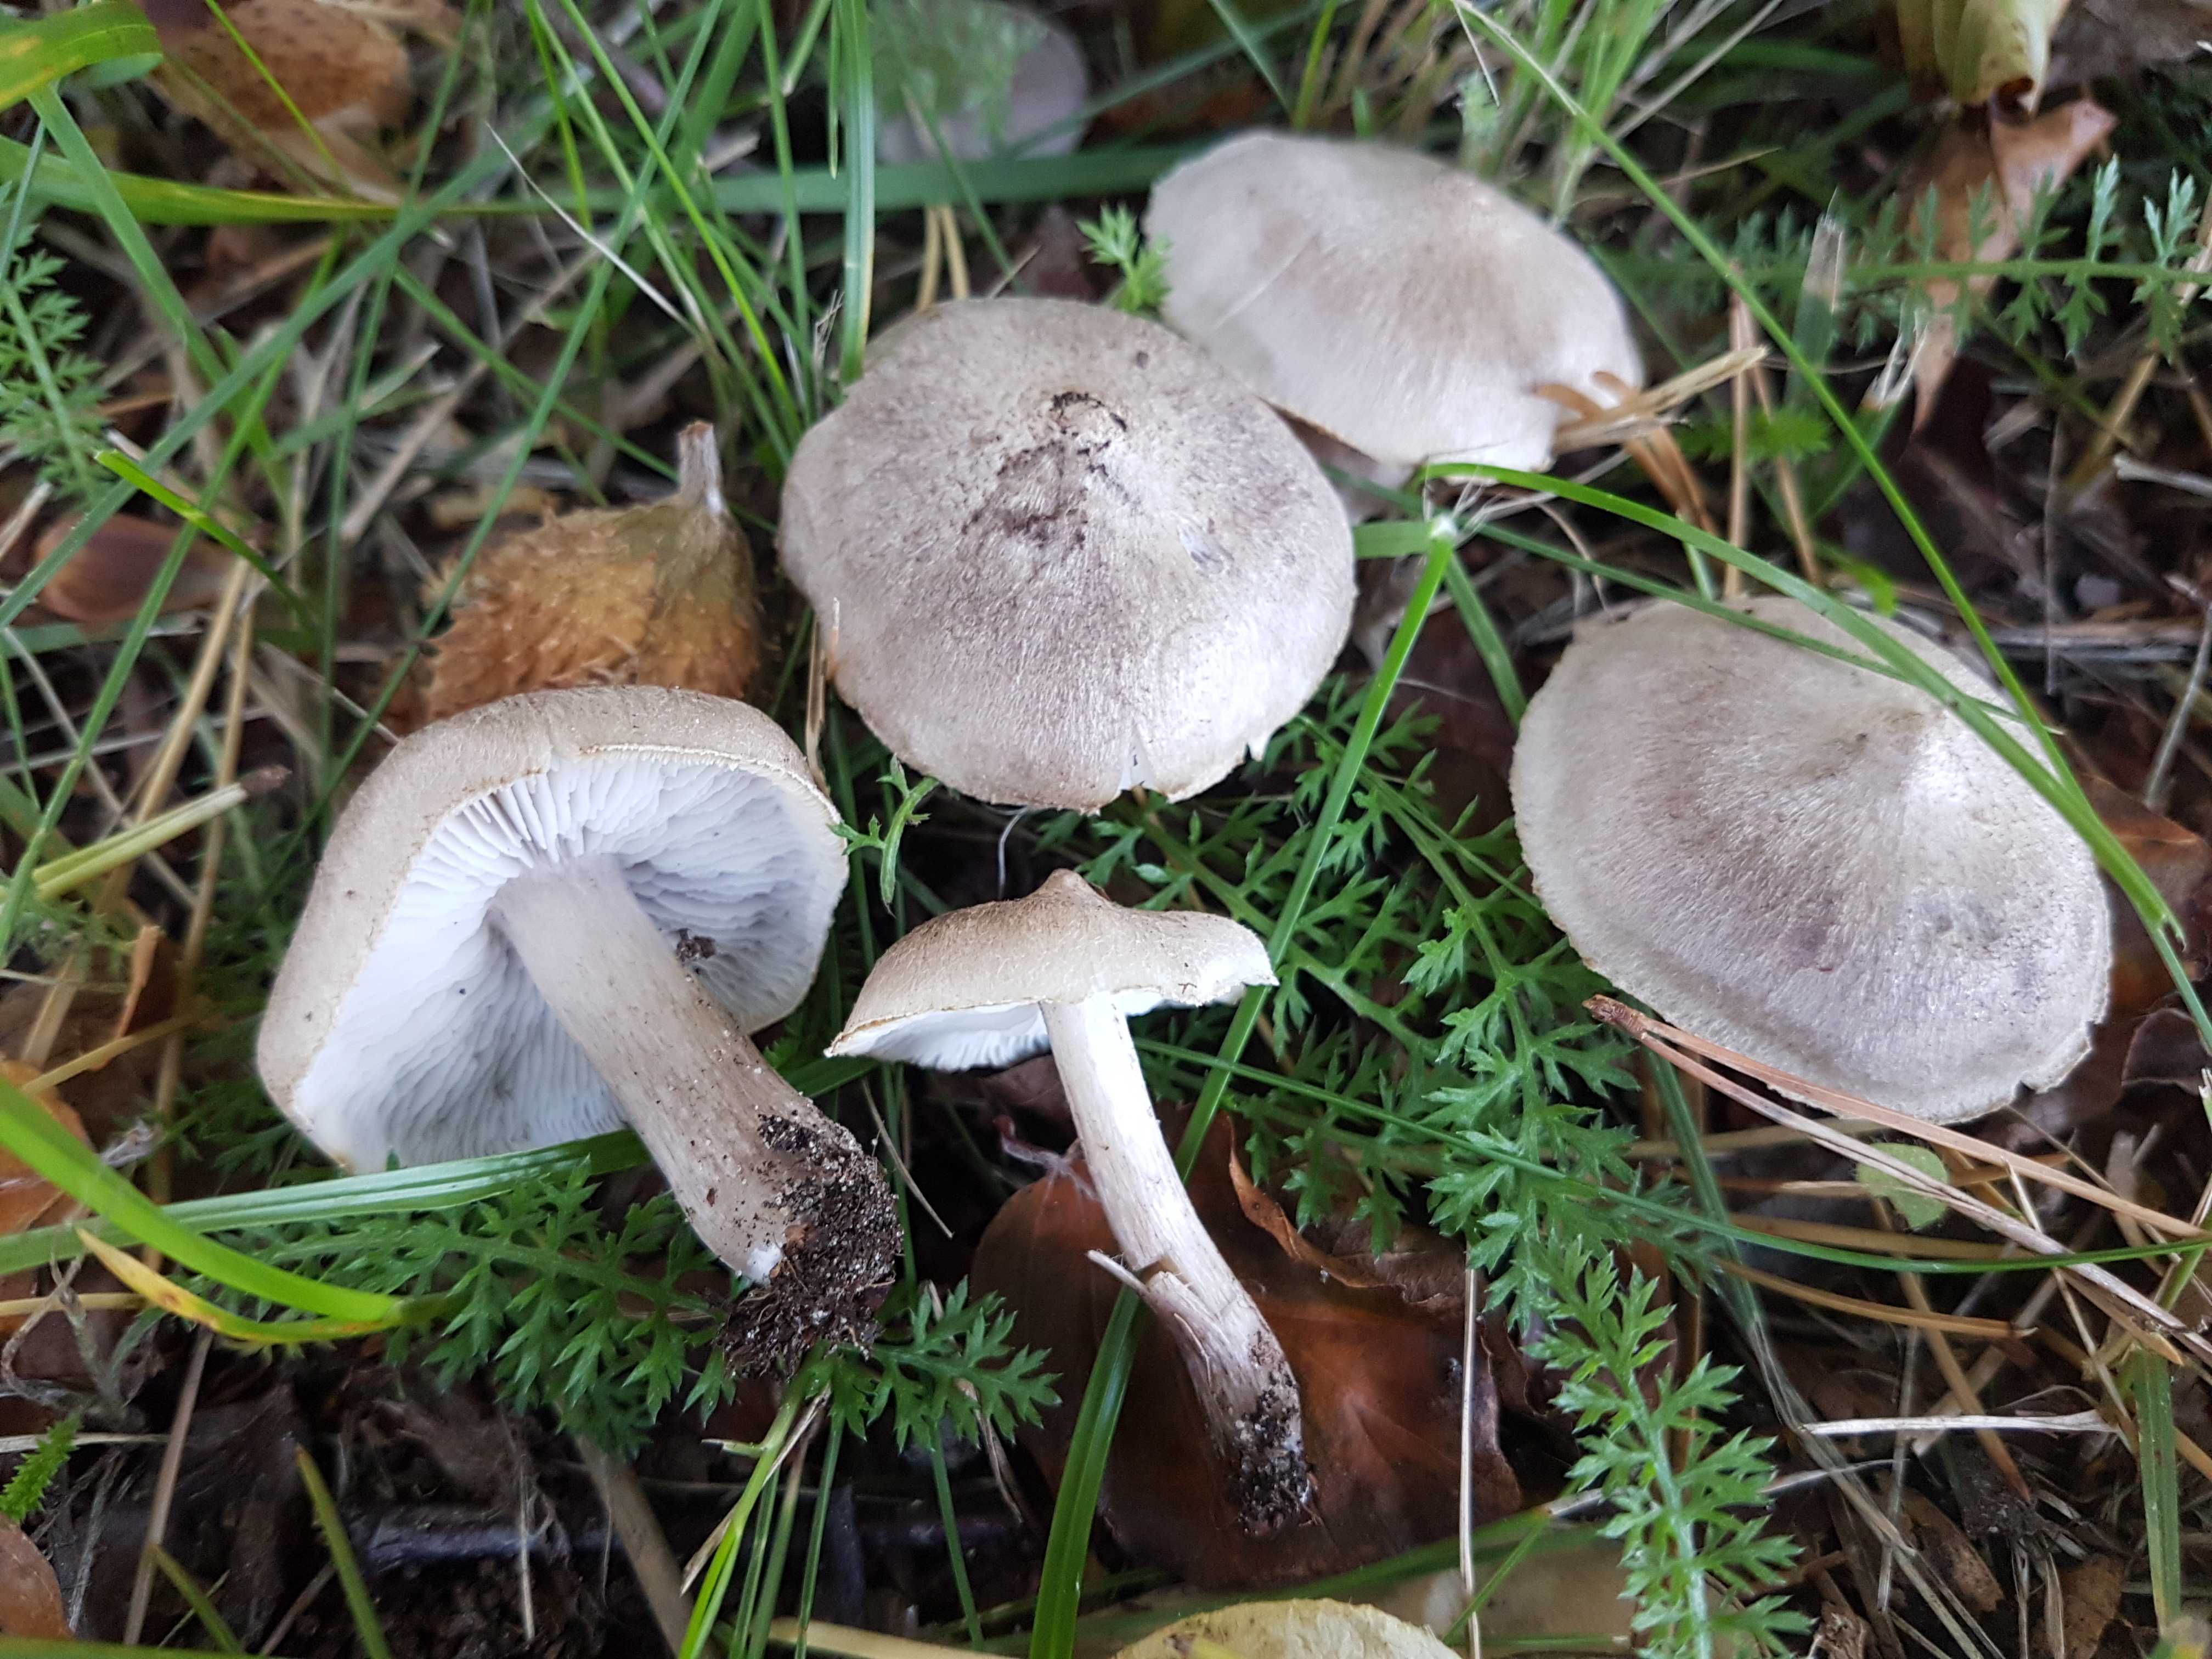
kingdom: Fungi
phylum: Basidiomycota
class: Agaricomycetes
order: Agaricales
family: Tricholomataceae
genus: Tricholoma
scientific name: Tricholoma argyraceum
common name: spids ridderhat
